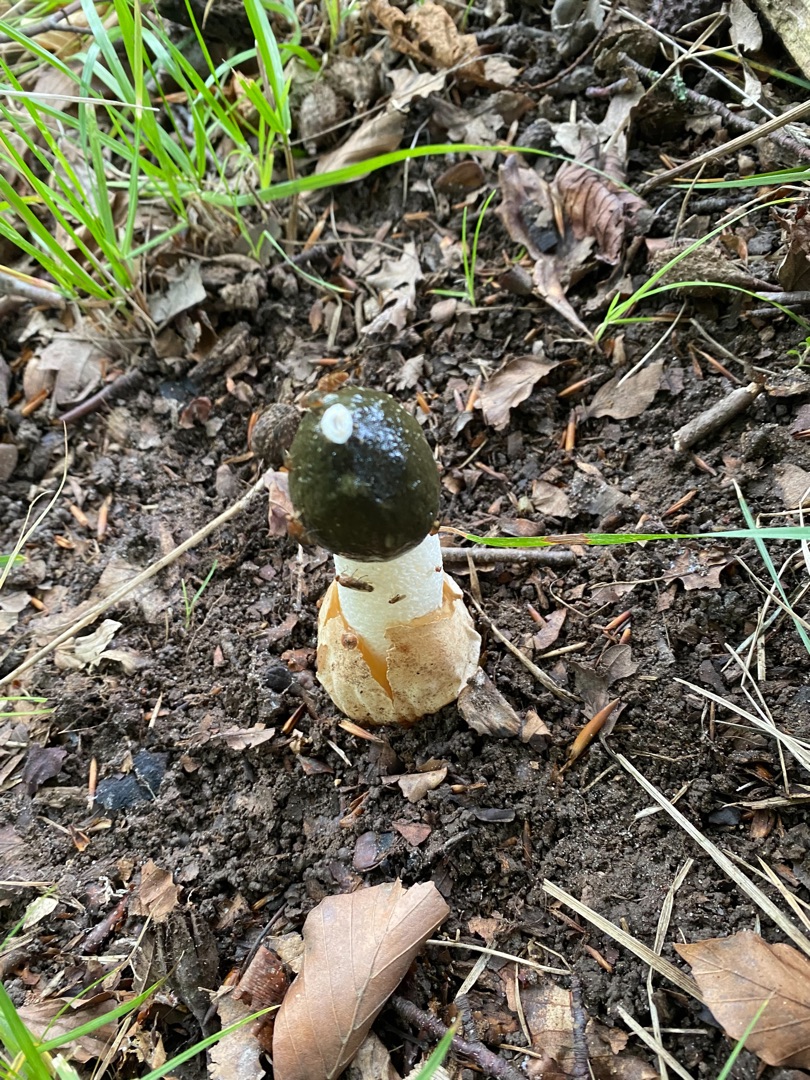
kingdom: Fungi
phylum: Basidiomycota
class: Agaricomycetes
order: Phallales
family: Phallaceae
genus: Phallus
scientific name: Phallus impudicus
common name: Almindelig stinksvamp
